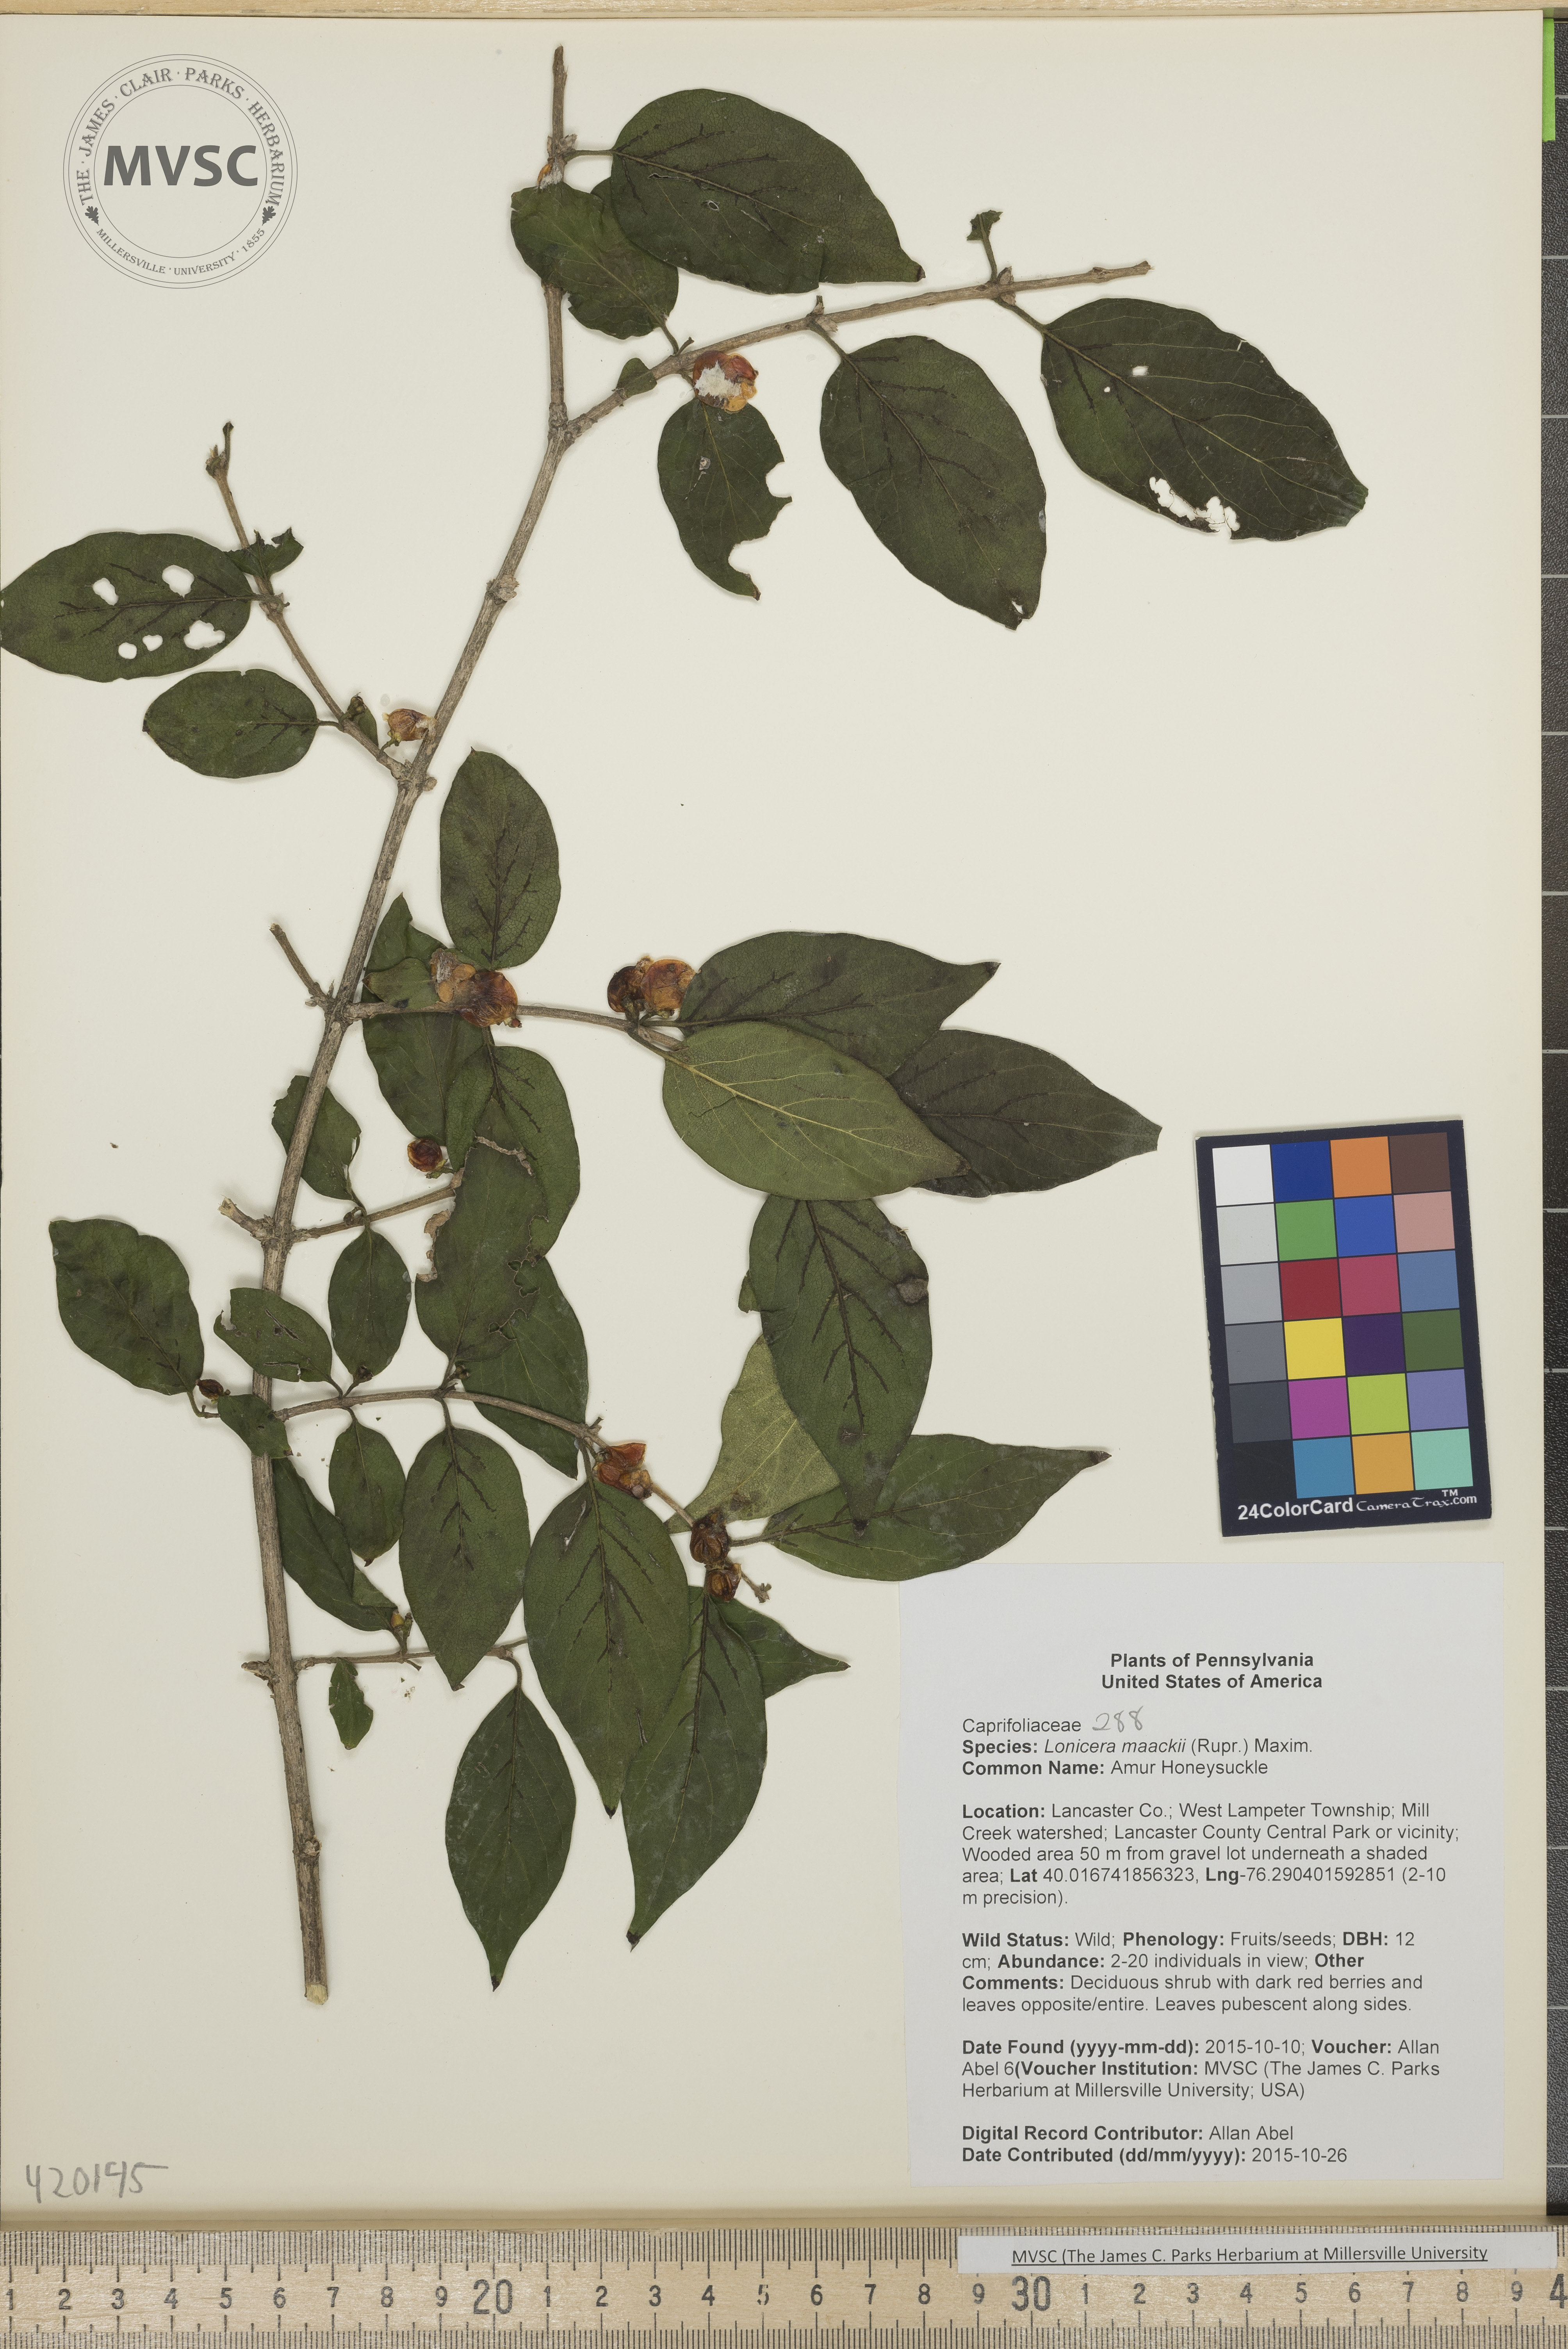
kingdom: Plantae
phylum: Tracheophyta
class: Magnoliopsida
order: Dipsacales
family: Caprifoliaceae
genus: Lonicera
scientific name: Lonicera maackii
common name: Amur Honeysuckle
